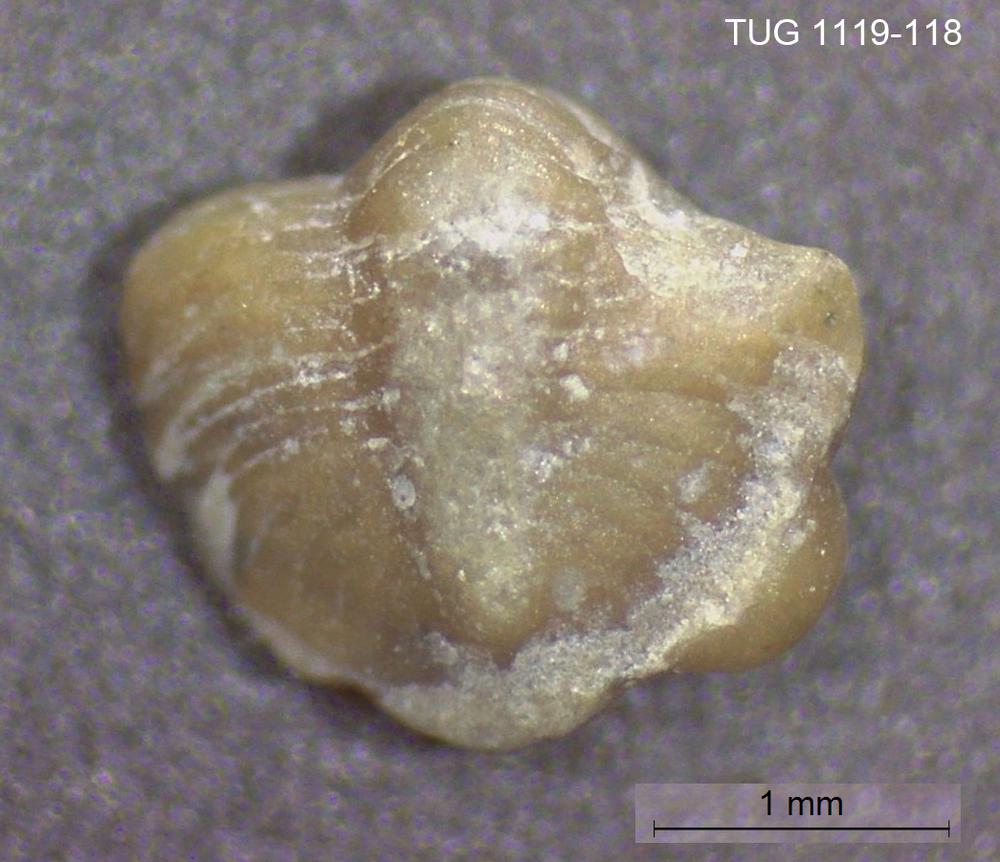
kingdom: Animalia
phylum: Arthropoda
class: Trilobita
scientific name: Trilobita
